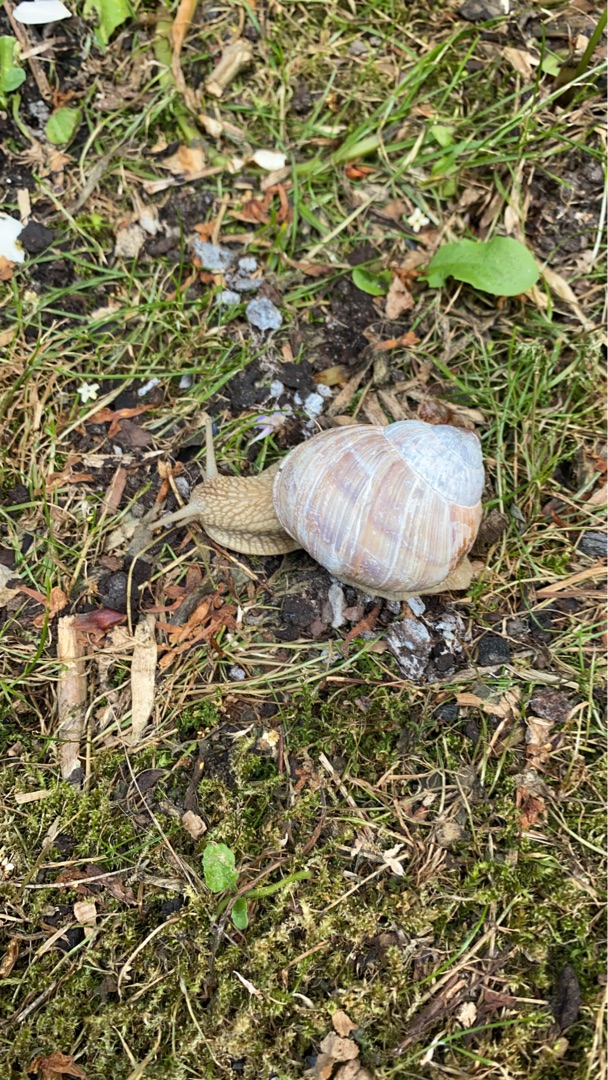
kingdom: Animalia
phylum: Mollusca
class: Gastropoda
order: Stylommatophora
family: Helicidae
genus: Helix
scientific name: Helix pomatia
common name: Vinbjergsnegl
